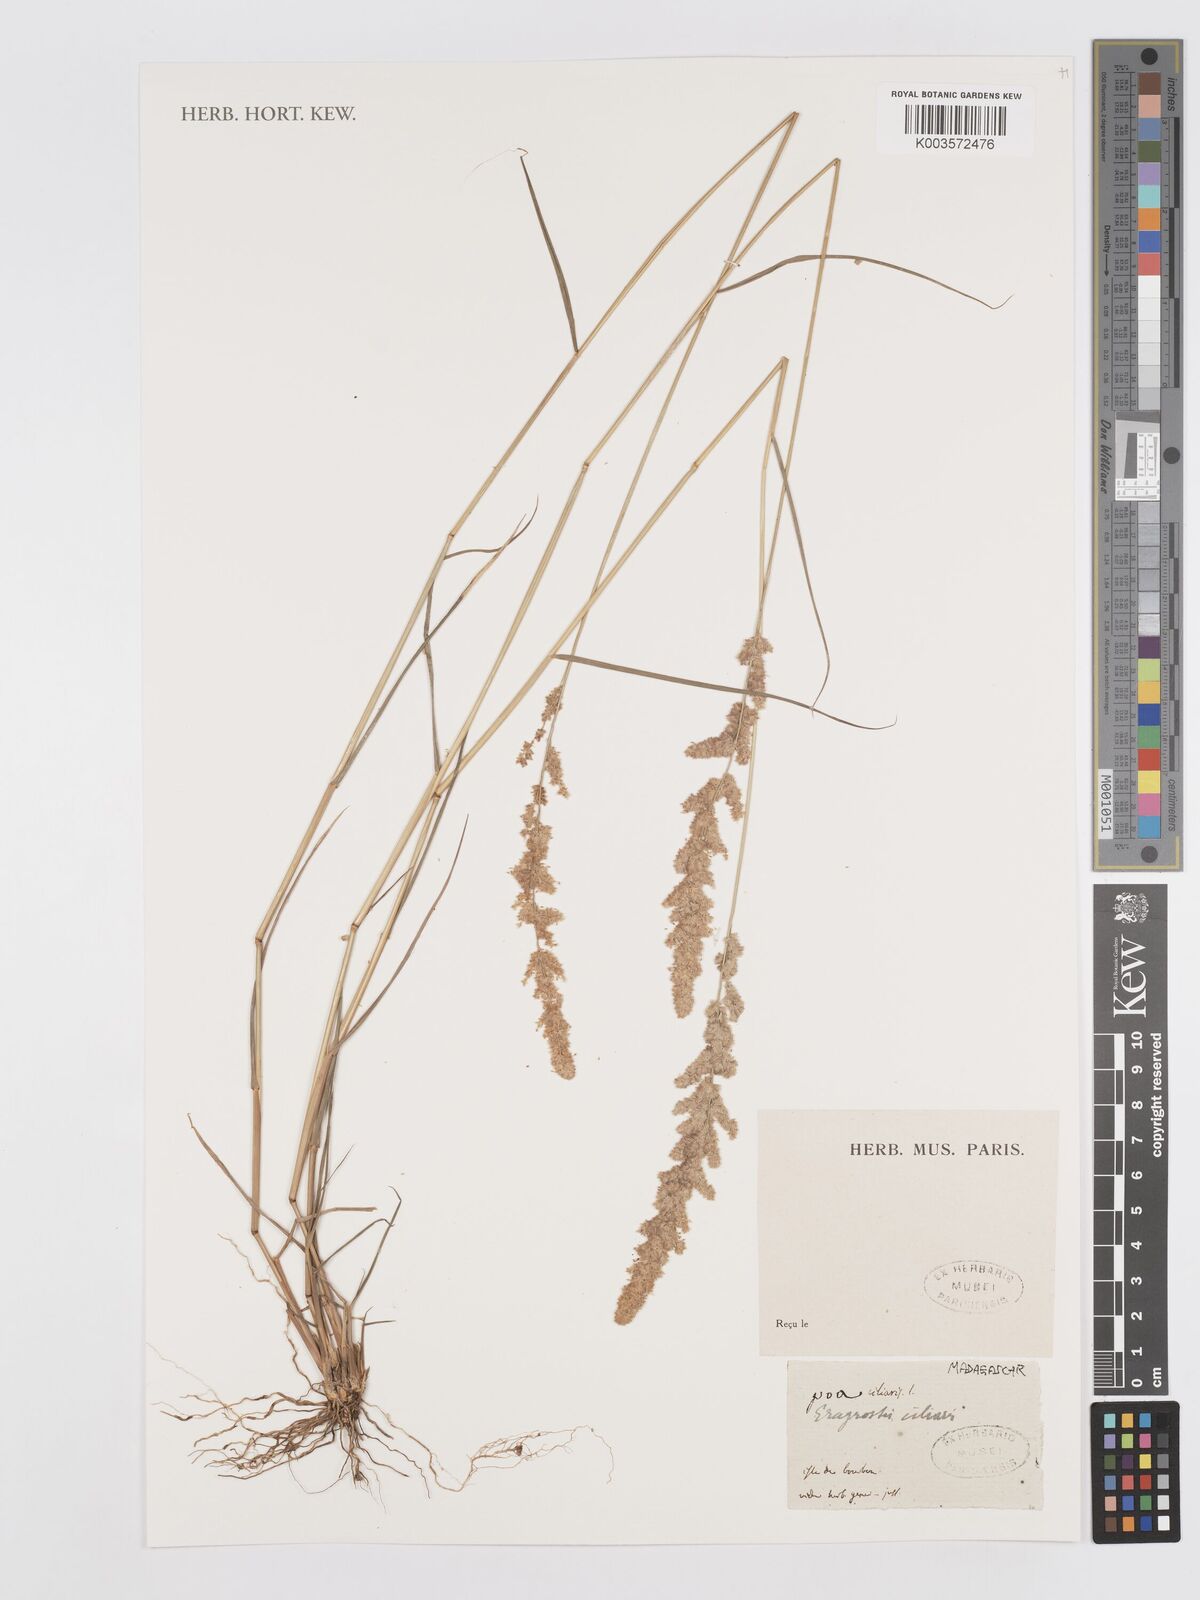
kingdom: Plantae
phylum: Tracheophyta
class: Liliopsida
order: Poales
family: Poaceae
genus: Eragrostis
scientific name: Eragrostis ciliaris
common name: Gophertail lovegrass
